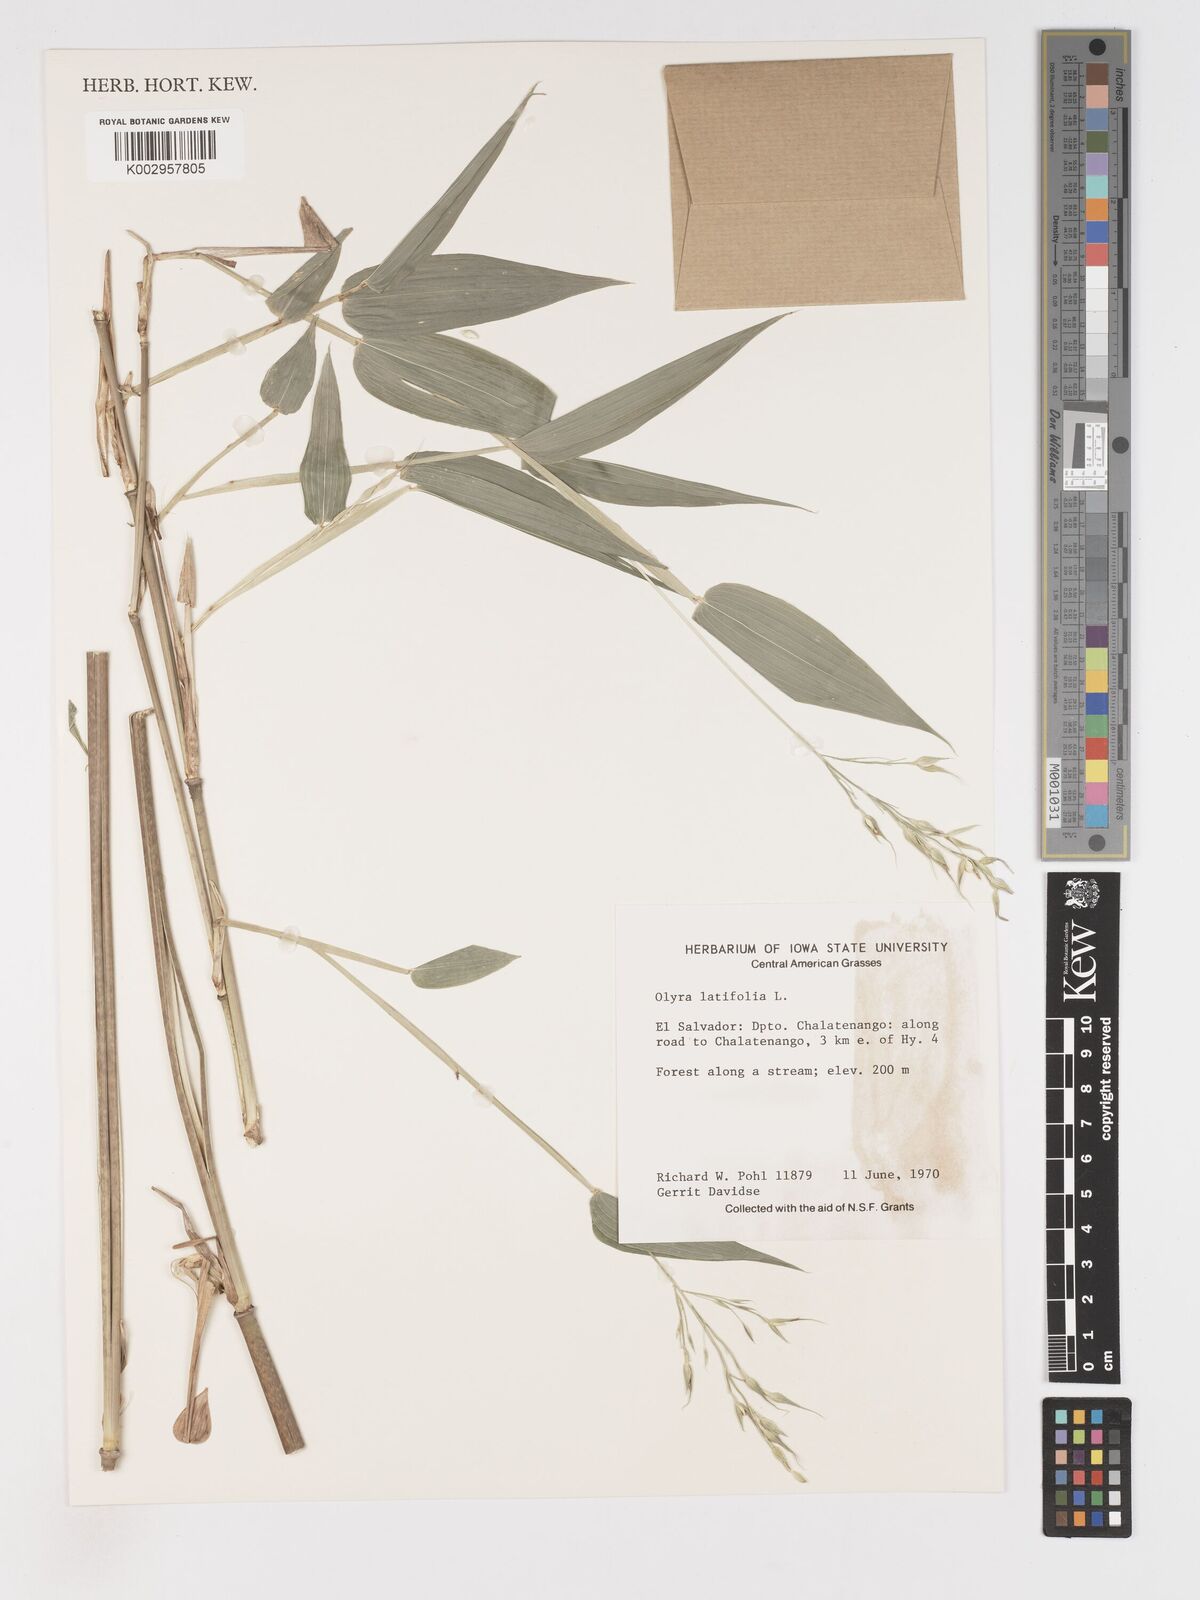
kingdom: Plantae
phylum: Tracheophyta
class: Liliopsida
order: Poales
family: Poaceae
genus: Olyra
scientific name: Olyra latifolia
